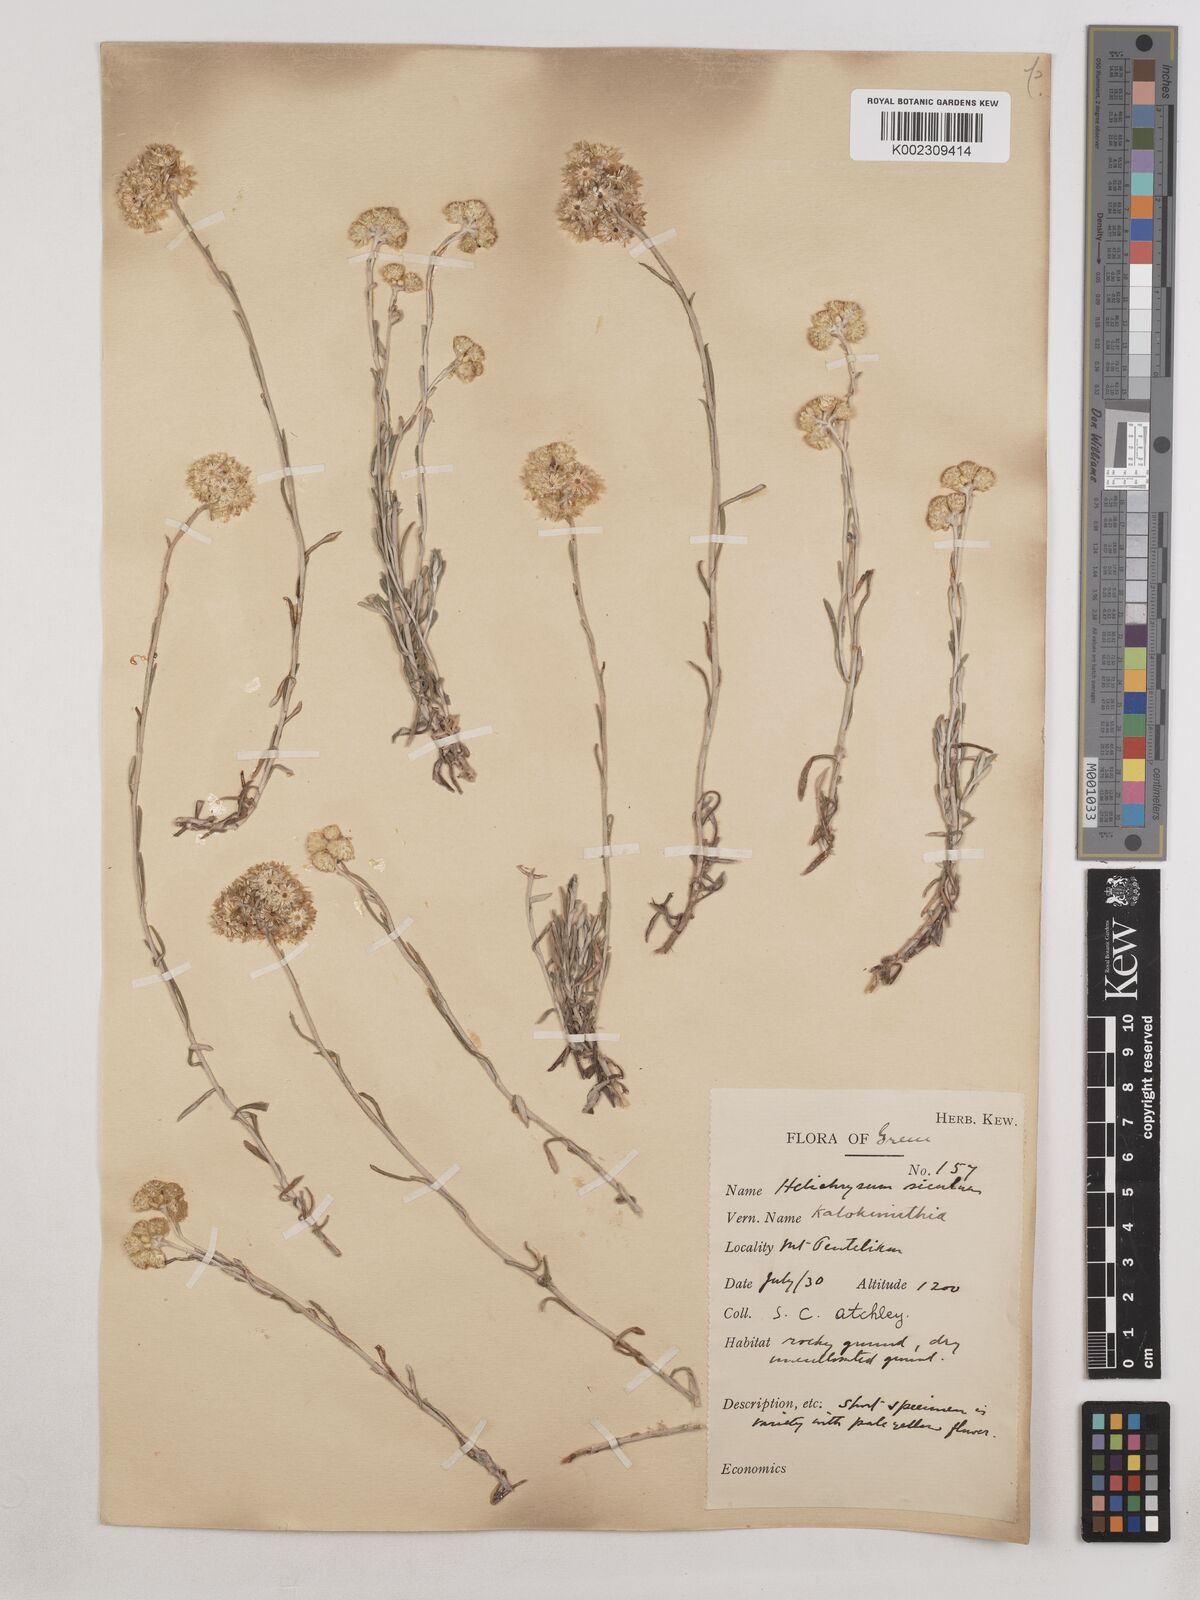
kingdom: Plantae
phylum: Tracheophyta
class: Magnoliopsida
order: Asterales
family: Asteraceae
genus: Helichrysum
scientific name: Helichrysum stoechas
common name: Goldilocks
